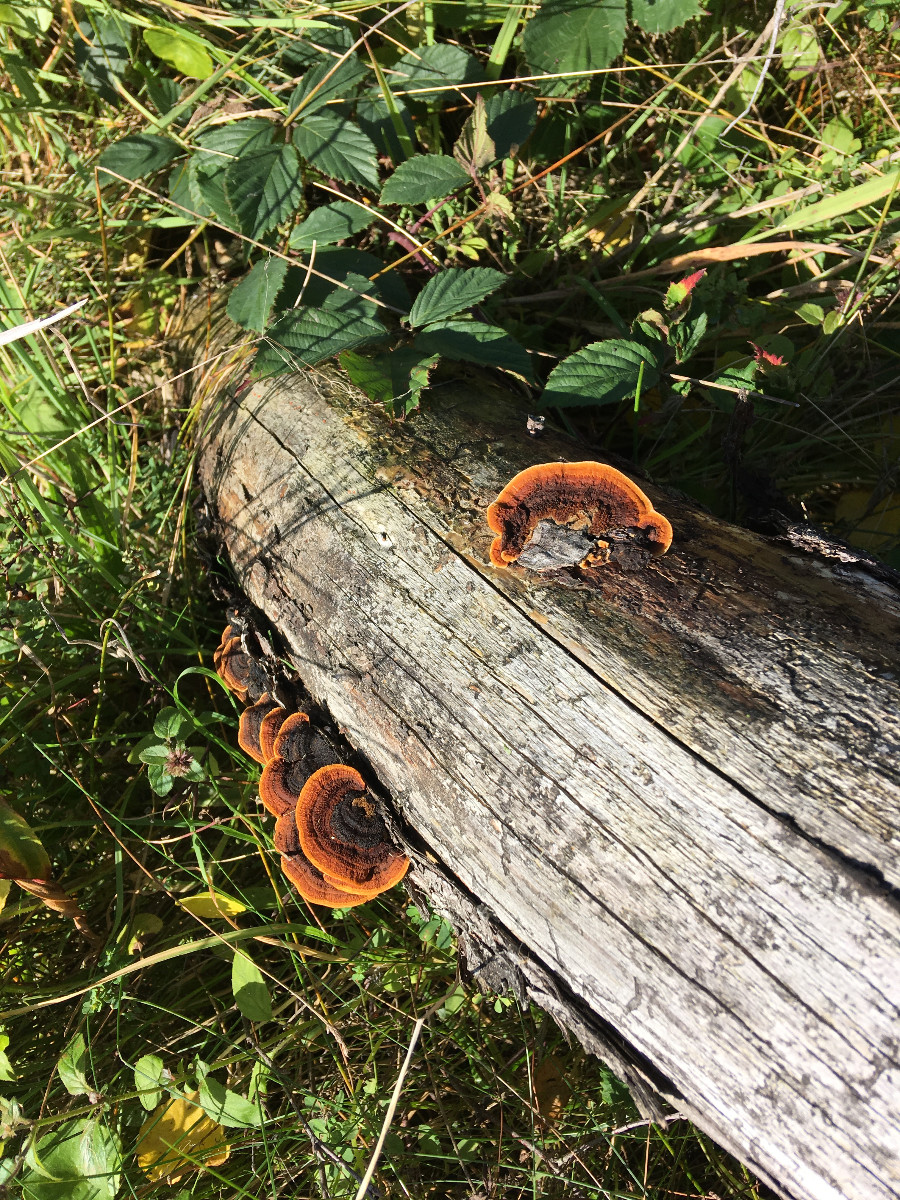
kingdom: Fungi
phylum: Basidiomycota
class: Agaricomycetes
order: Gloeophyllales
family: Gloeophyllaceae
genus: Gloeophyllum
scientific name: Gloeophyllum sepiarium
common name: fyrre-korkhat
